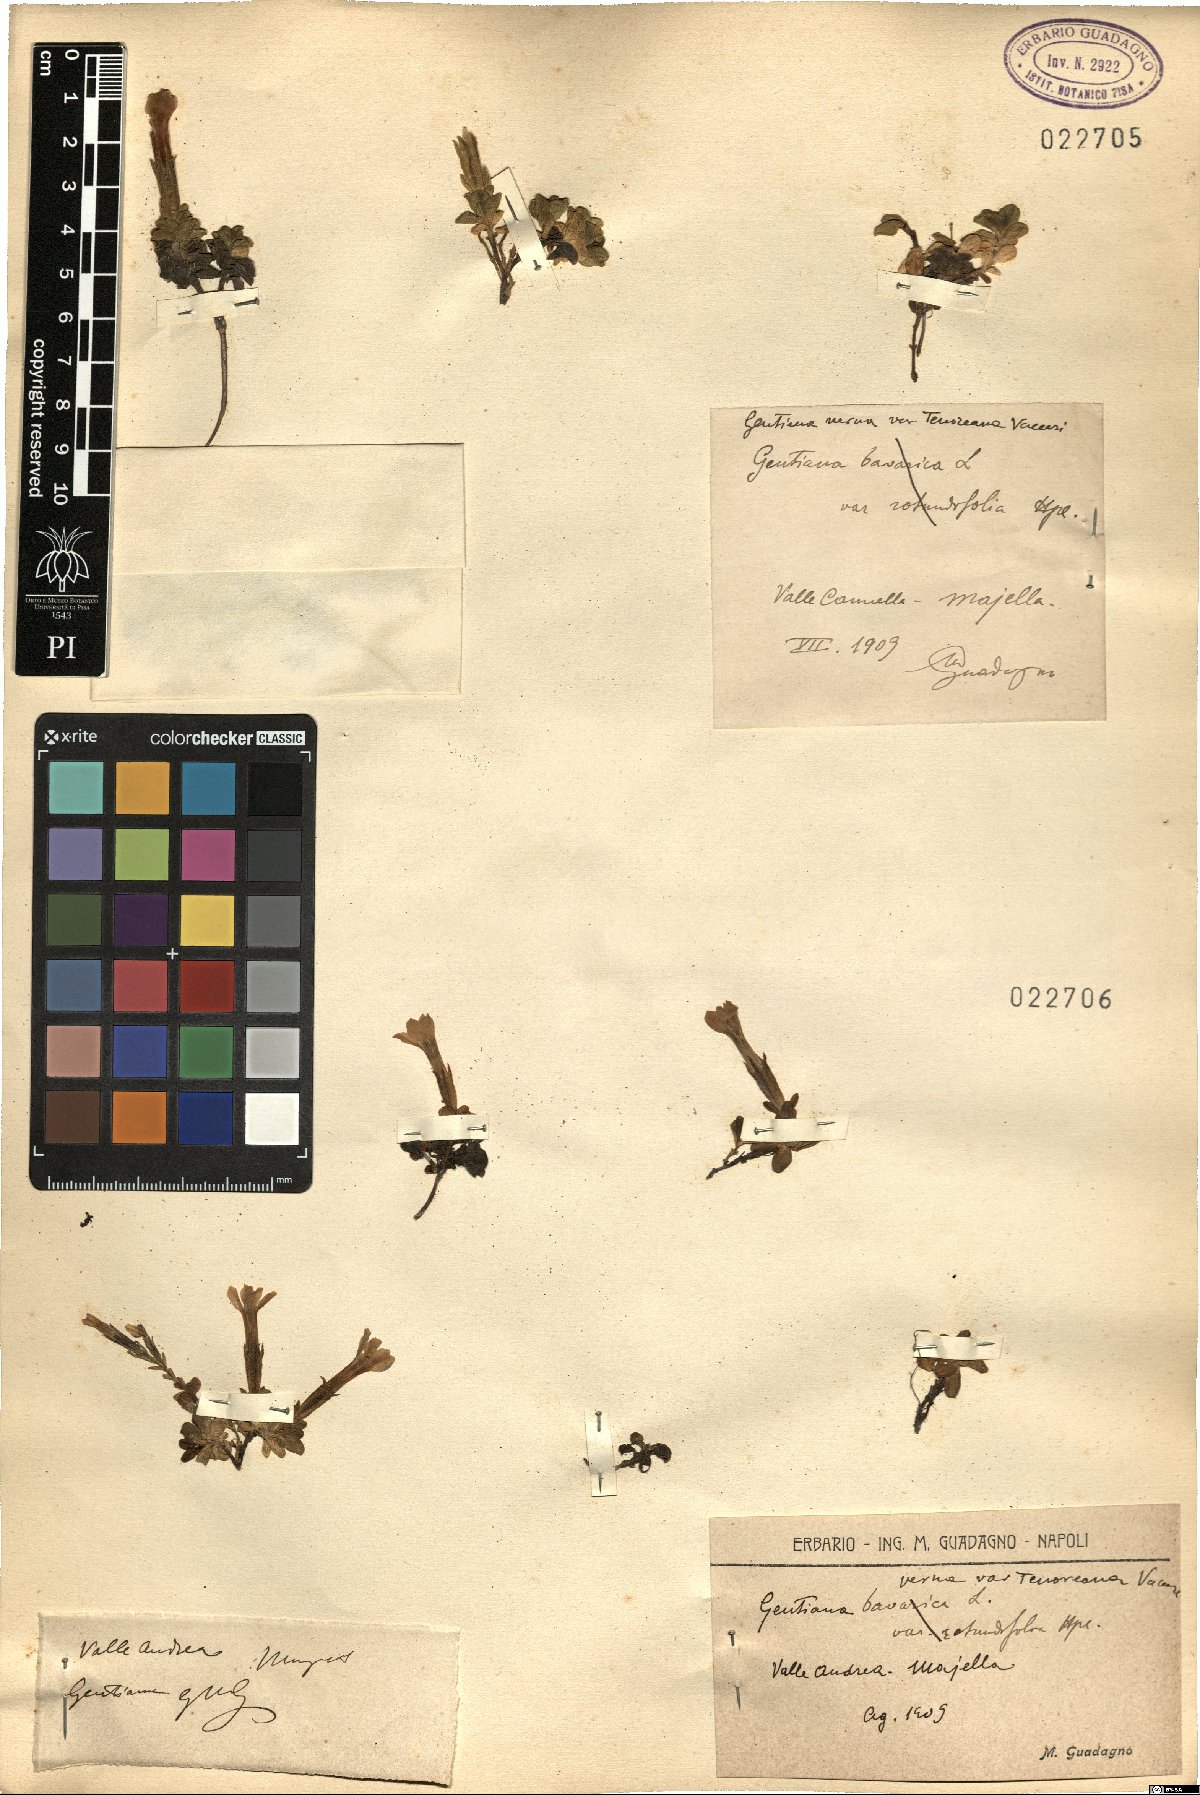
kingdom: Plantae
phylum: Tracheophyta
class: Magnoliopsida
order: Gentianales
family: Gentianaceae
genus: Gentiana
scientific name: Gentiana verna
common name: Spring gentian
